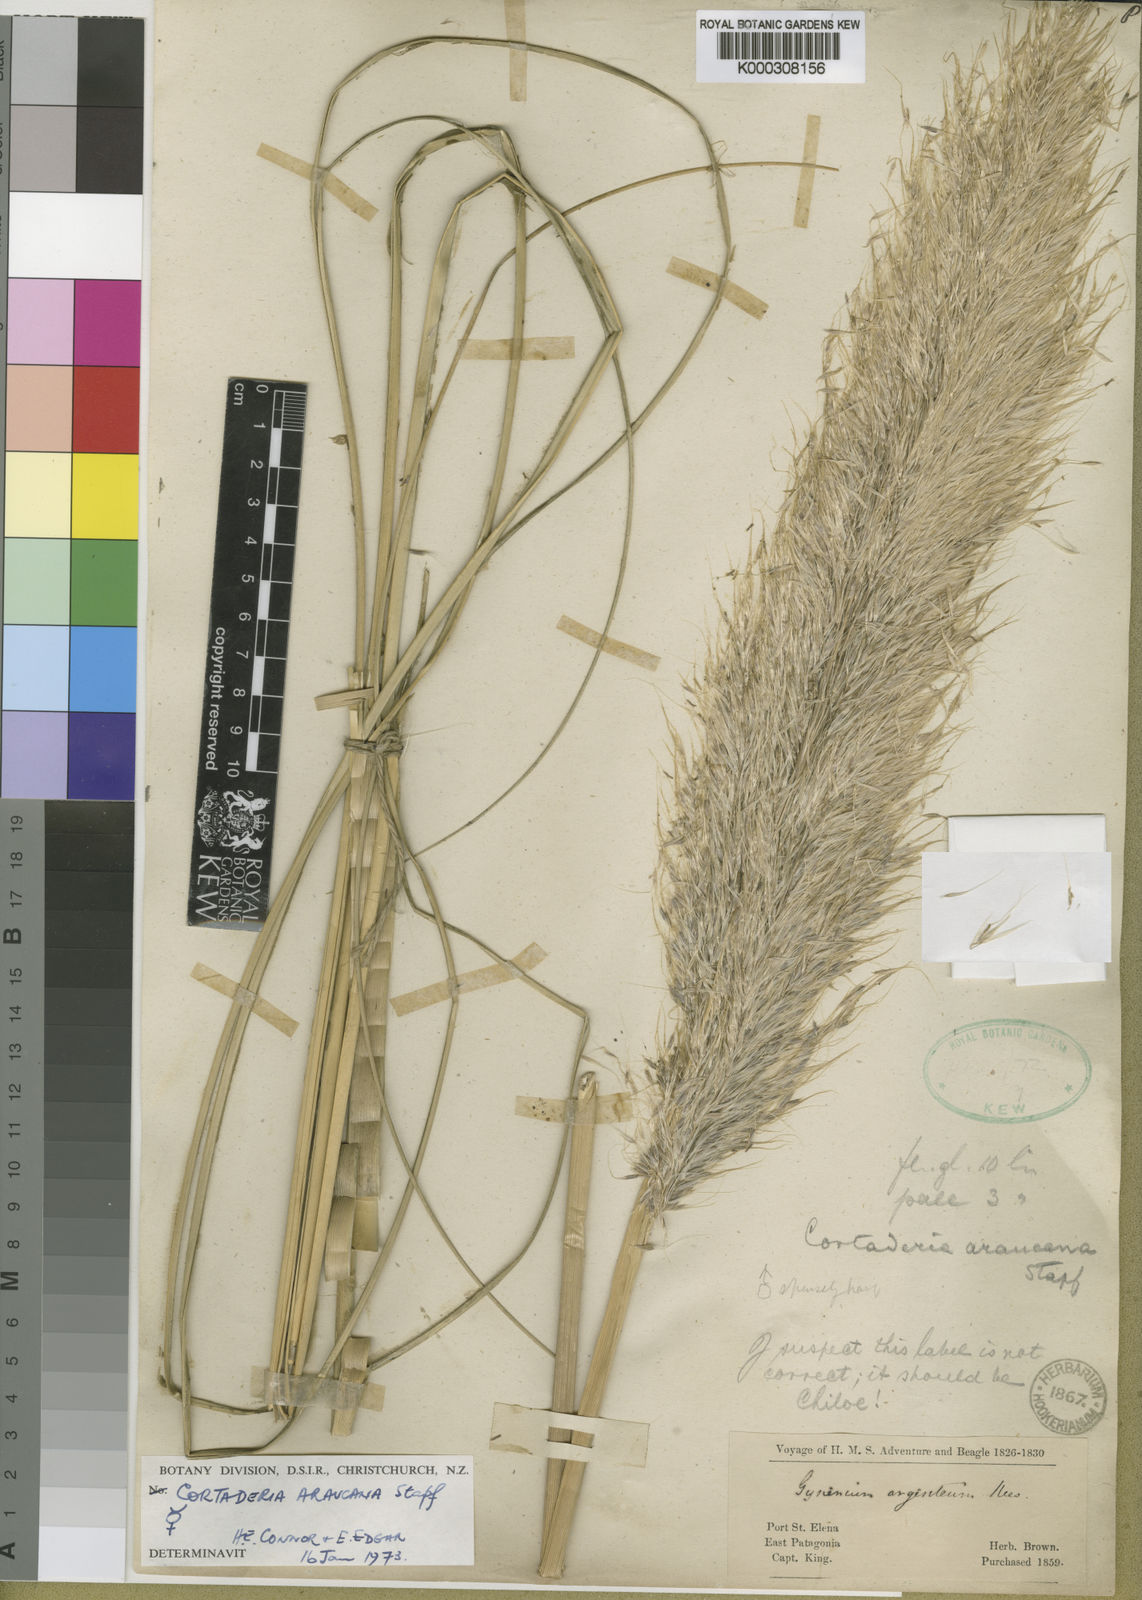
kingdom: Plantae
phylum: Tracheophyta
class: Liliopsida
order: Poales
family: Poaceae
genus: Cortaderia
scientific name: Cortaderia araucana
